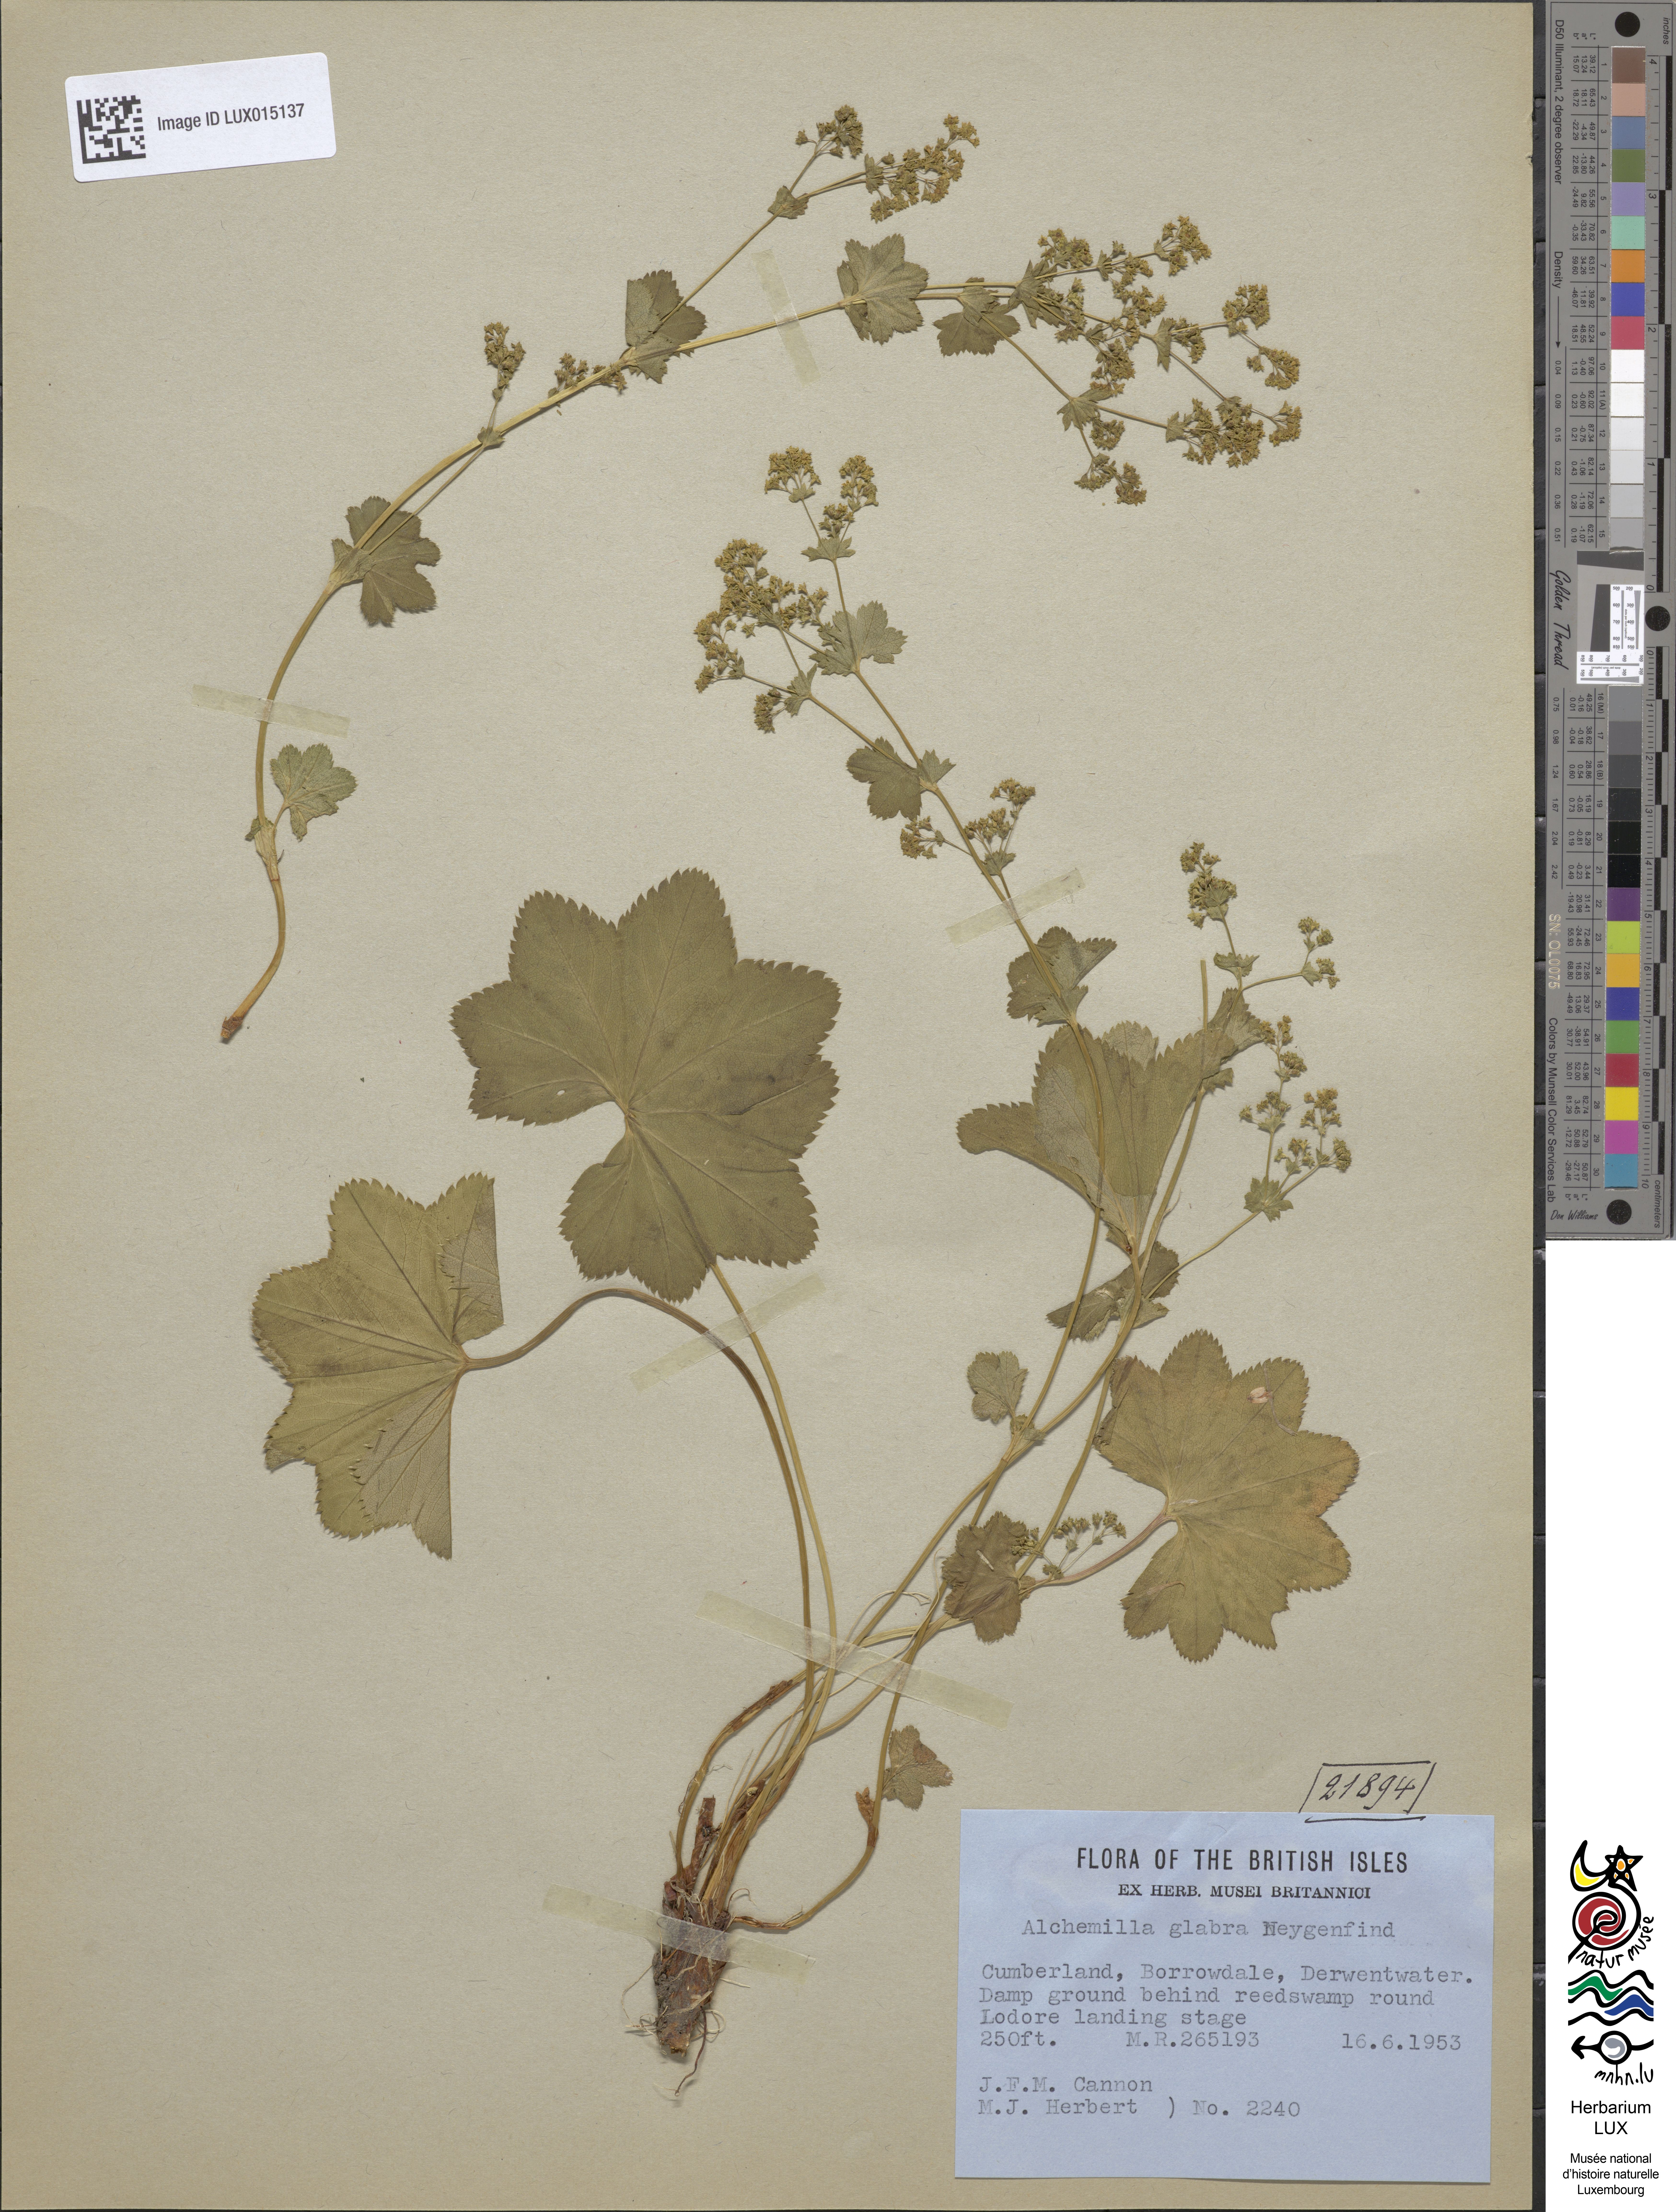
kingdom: Plantae
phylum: Tracheophyta
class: Magnoliopsida
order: Rosales
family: Rosaceae
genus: Alchemilla
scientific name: Alchemilla glabra
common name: Smooth lady's-mantle
